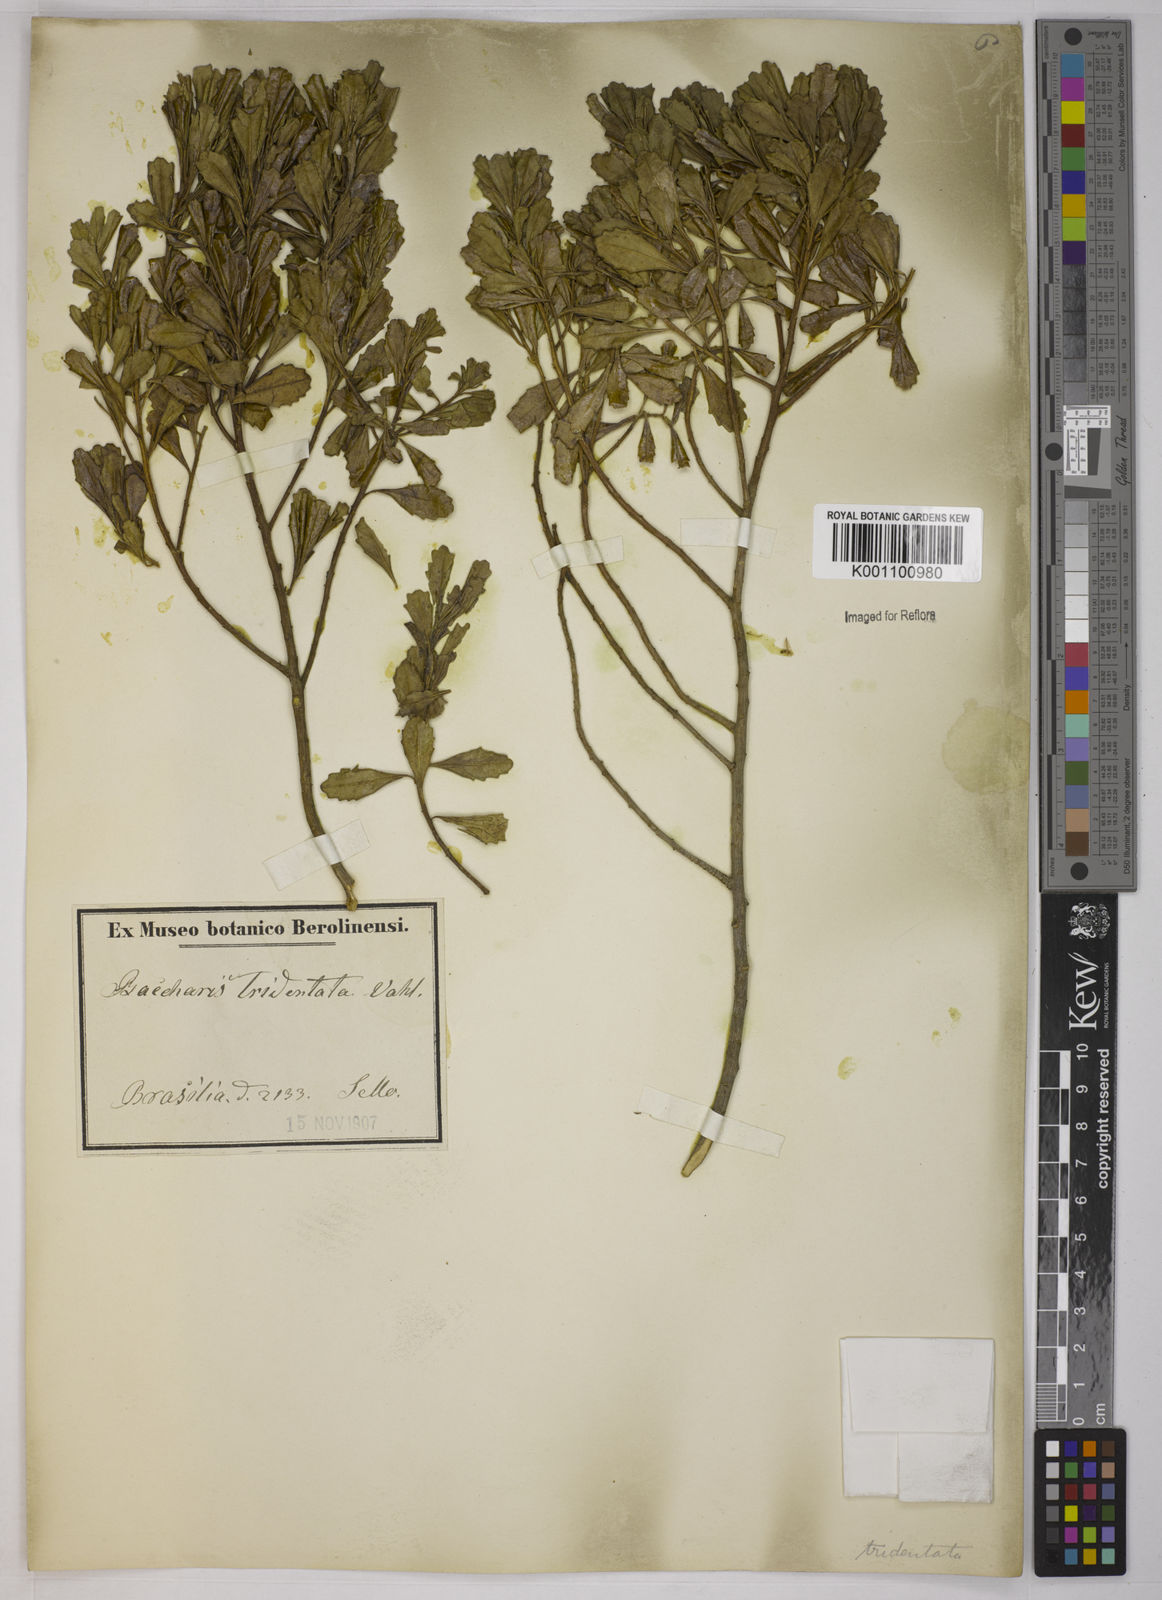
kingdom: Plantae
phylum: Tracheophyta
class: Magnoliopsida
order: Asterales
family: Asteraceae
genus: Baccharis
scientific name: Baccharis tridentata
